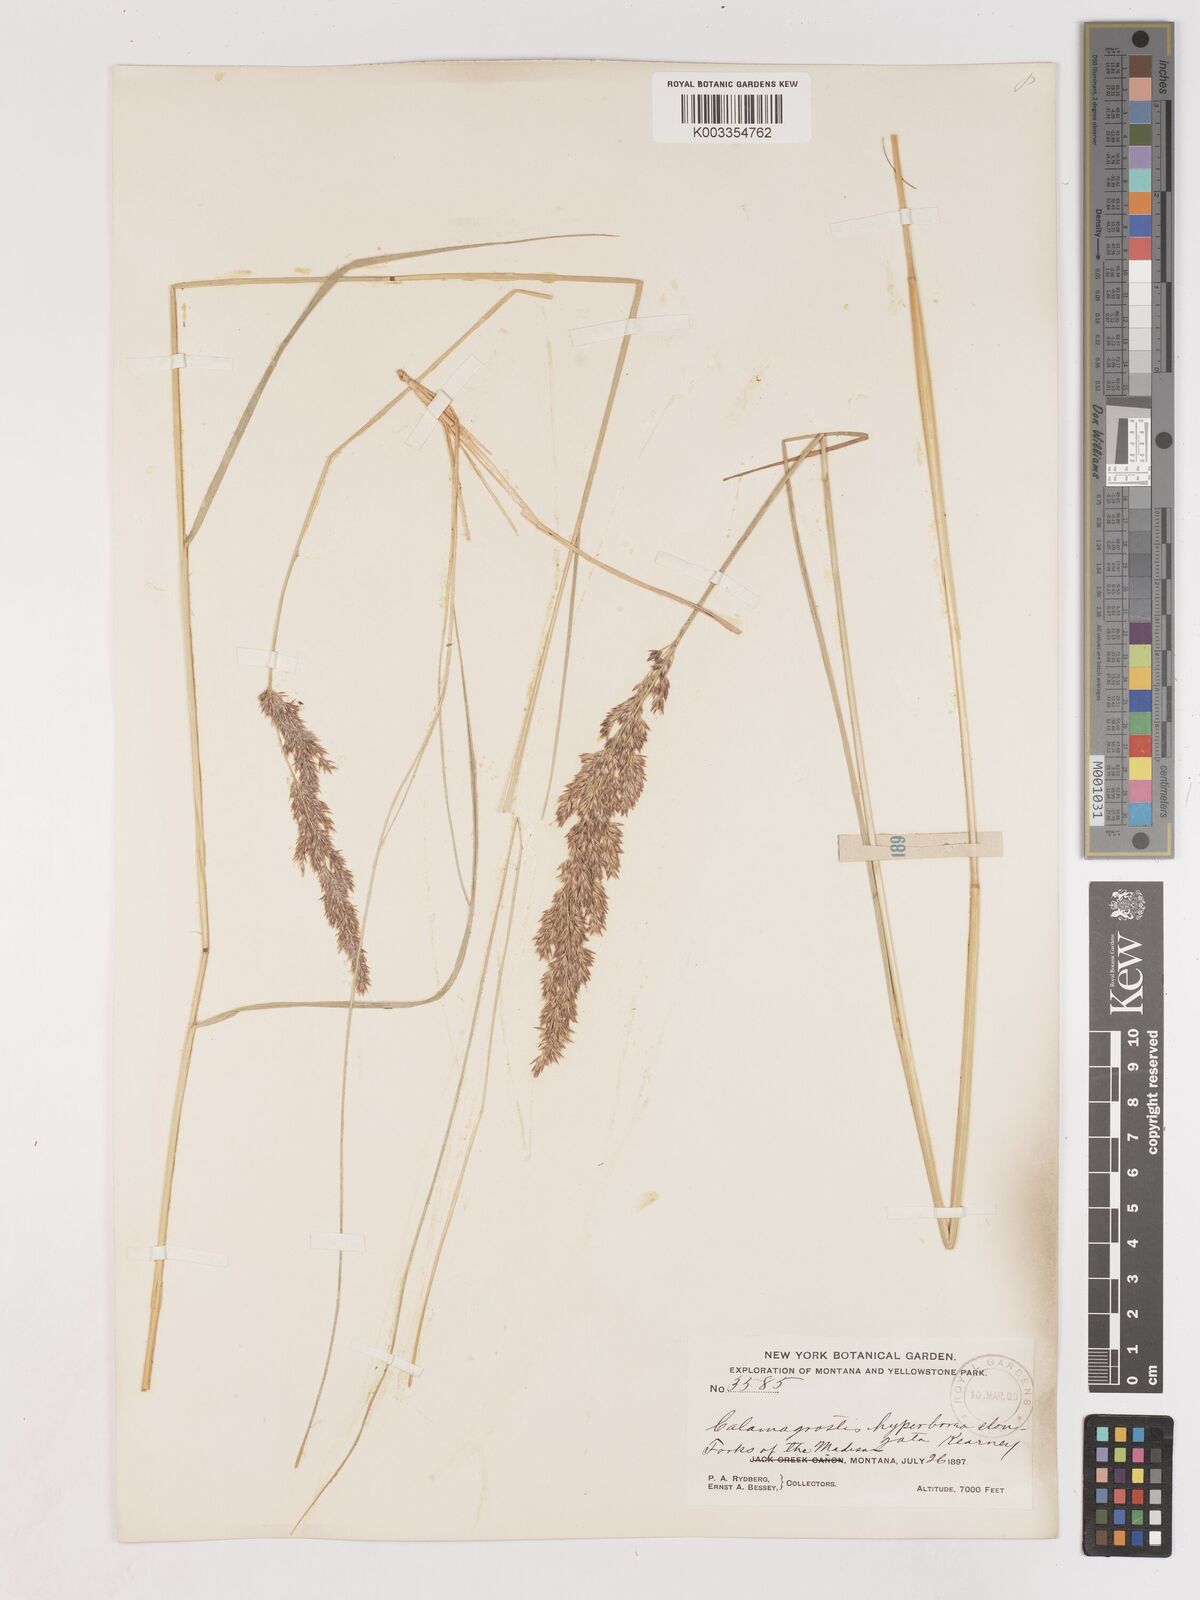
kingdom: Plantae
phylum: Tracheophyta
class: Liliopsida
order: Poales
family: Poaceae
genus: Cinnagrostis
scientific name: Cinnagrostis recta
